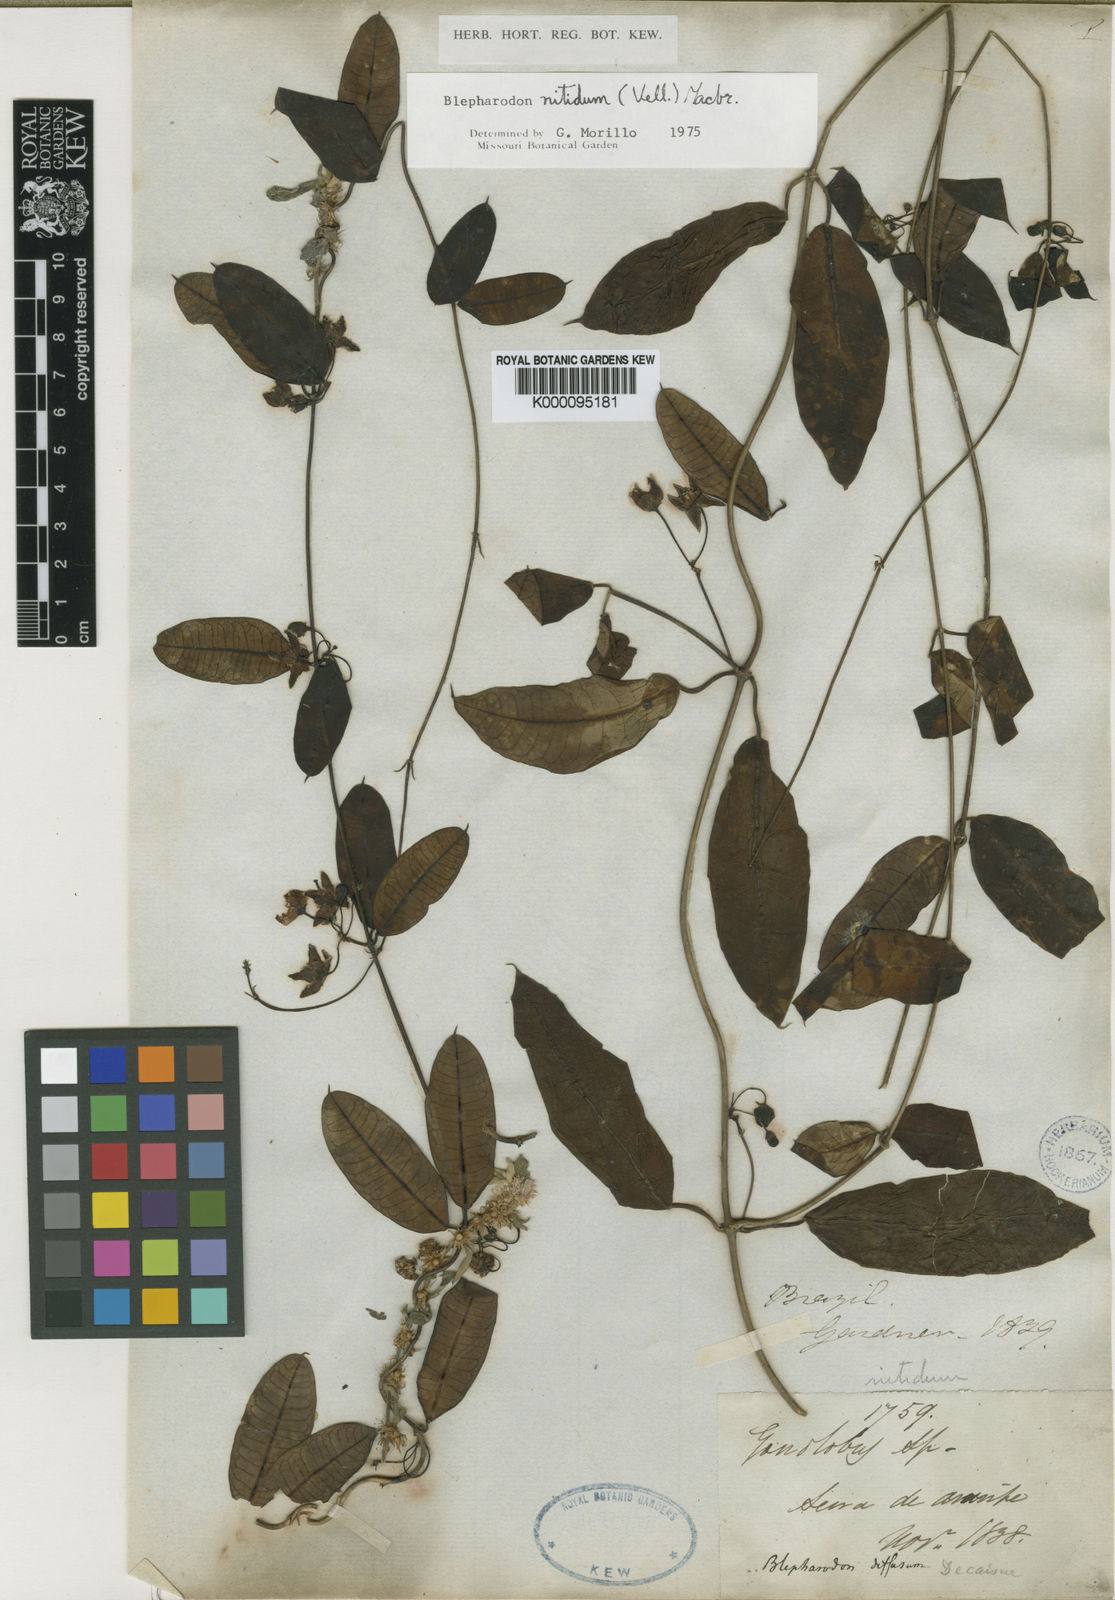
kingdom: Plantae
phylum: Tracheophyta
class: Magnoliopsida
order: Gentianales
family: Apocynaceae
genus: Blepharodon
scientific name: Blepharodon pictum
